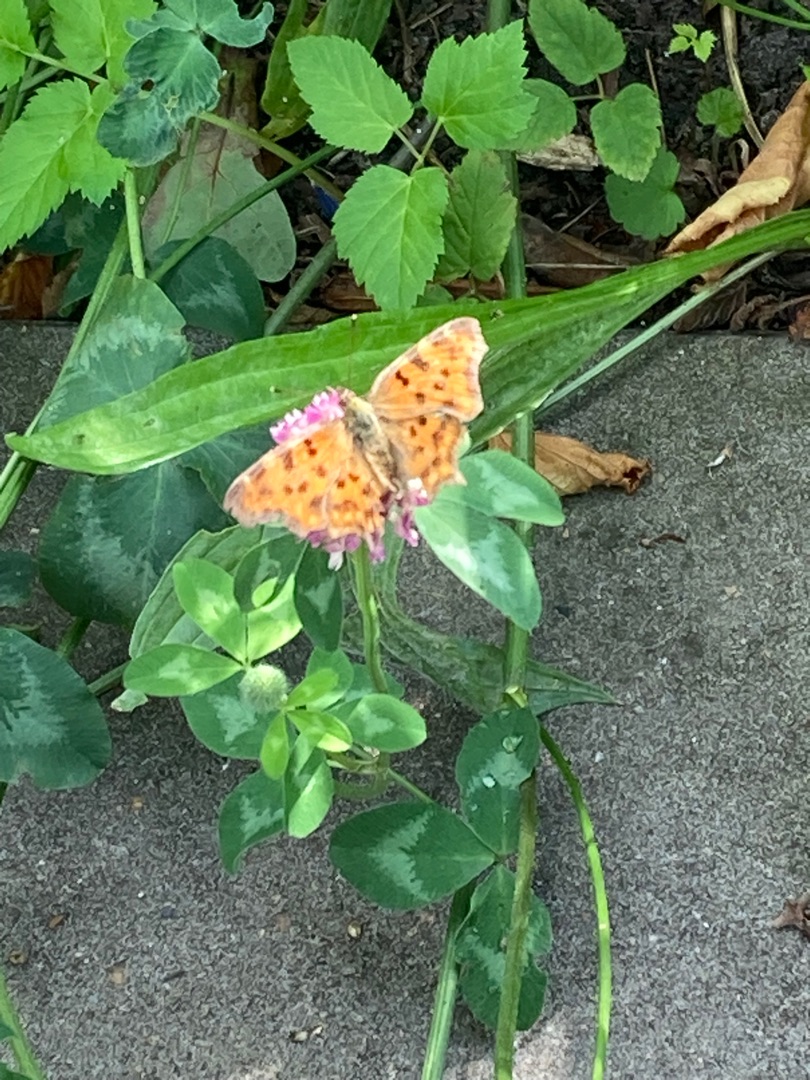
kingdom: Animalia
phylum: Arthropoda
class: Insecta
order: Lepidoptera
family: Nymphalidae
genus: Polygonia
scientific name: Polygonia c-album
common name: Det hvide C
